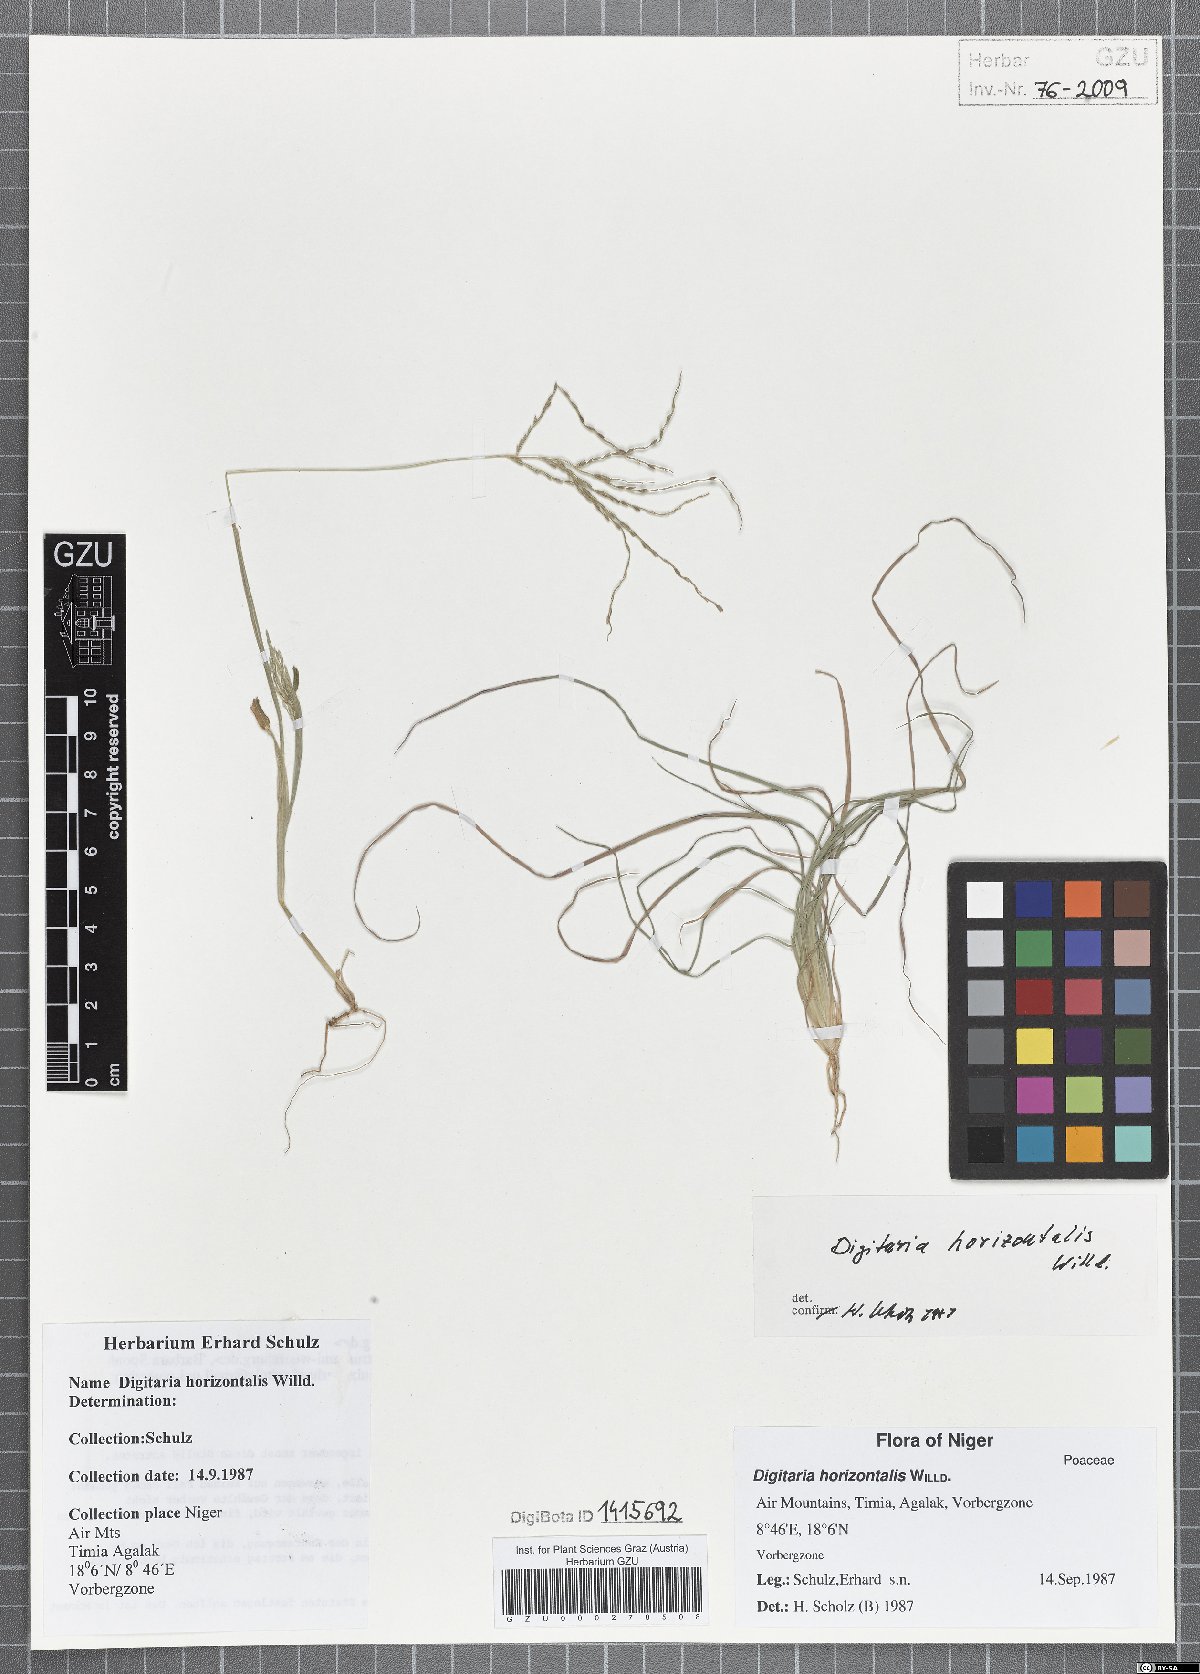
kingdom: Plantae
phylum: Tracheophyta
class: Liliopsida
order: Poales
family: Poaceae
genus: Digitaria
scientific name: Digitaria horizontalis
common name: Jamaican crabgrass
